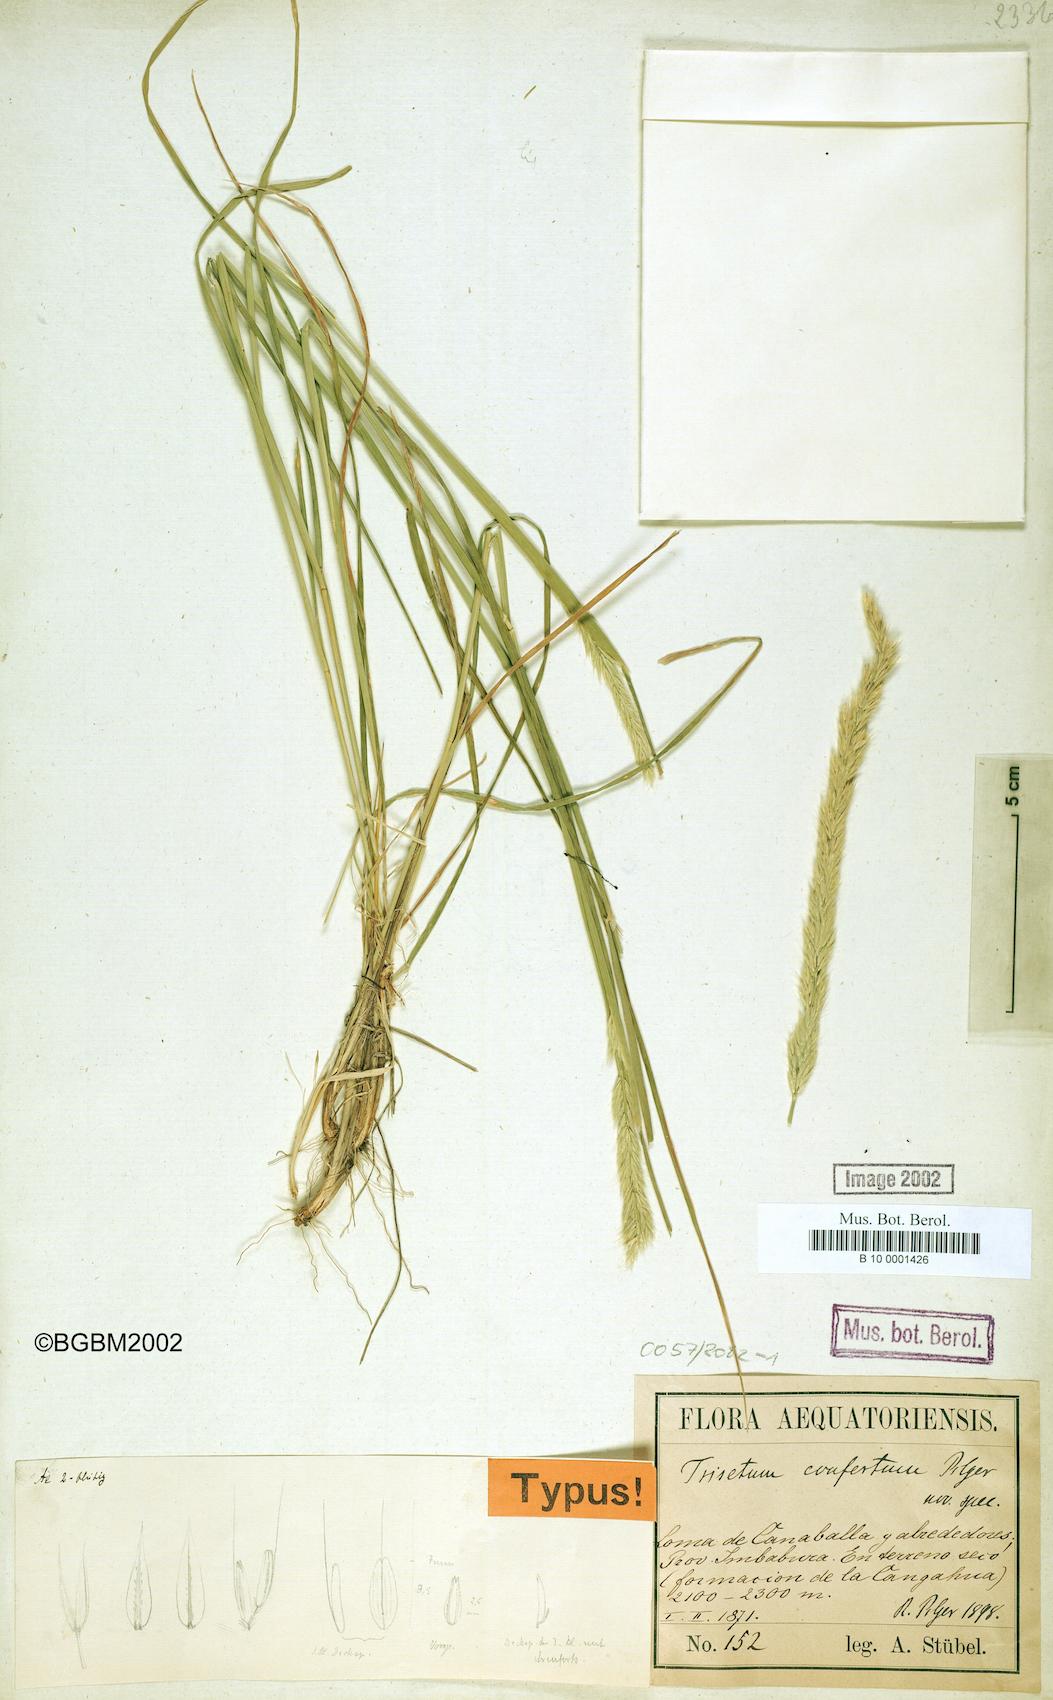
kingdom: Plantae
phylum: Tracheophyta
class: Liliopsida
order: Poales
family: Poaceae
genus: Peyritschia
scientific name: Peyritschia conferta
